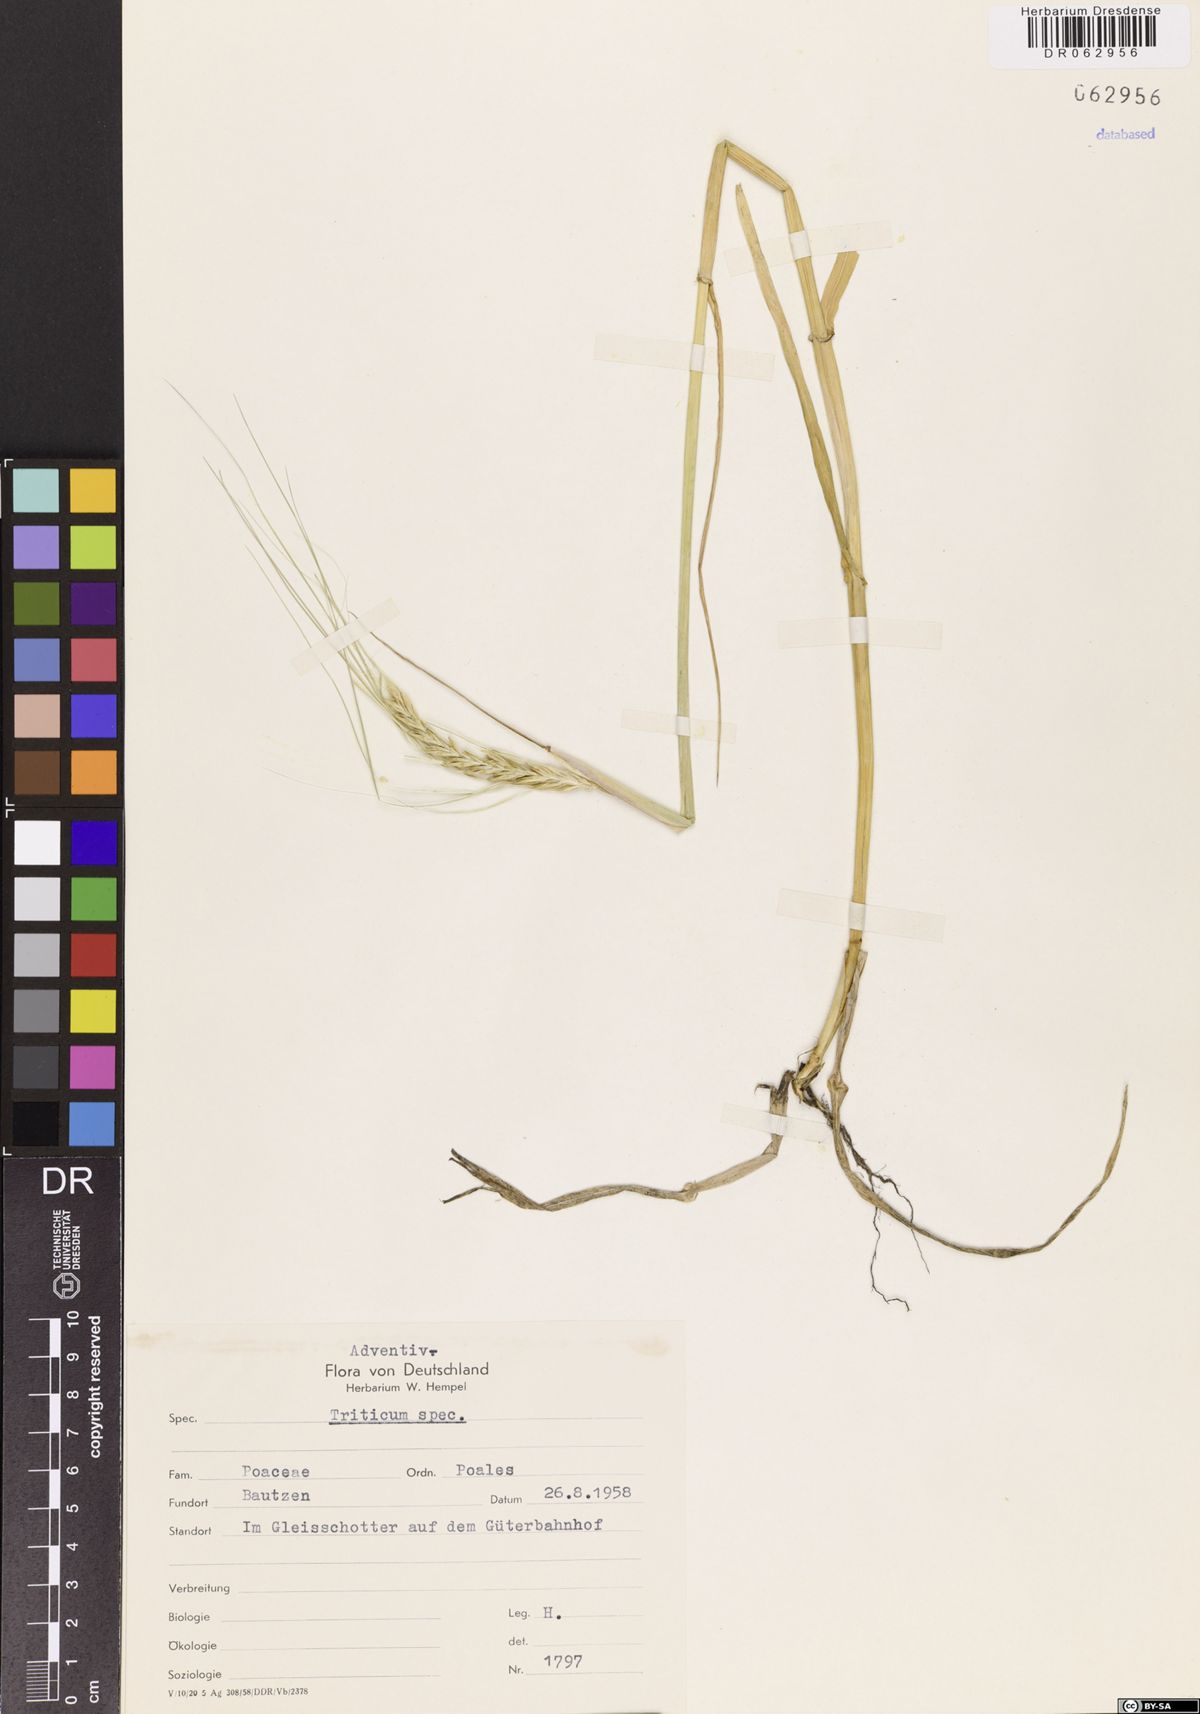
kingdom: Plantae
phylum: Tracheophyta
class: Liliopsida
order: Poales
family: Poaceae
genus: Triticum
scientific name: Triticum
